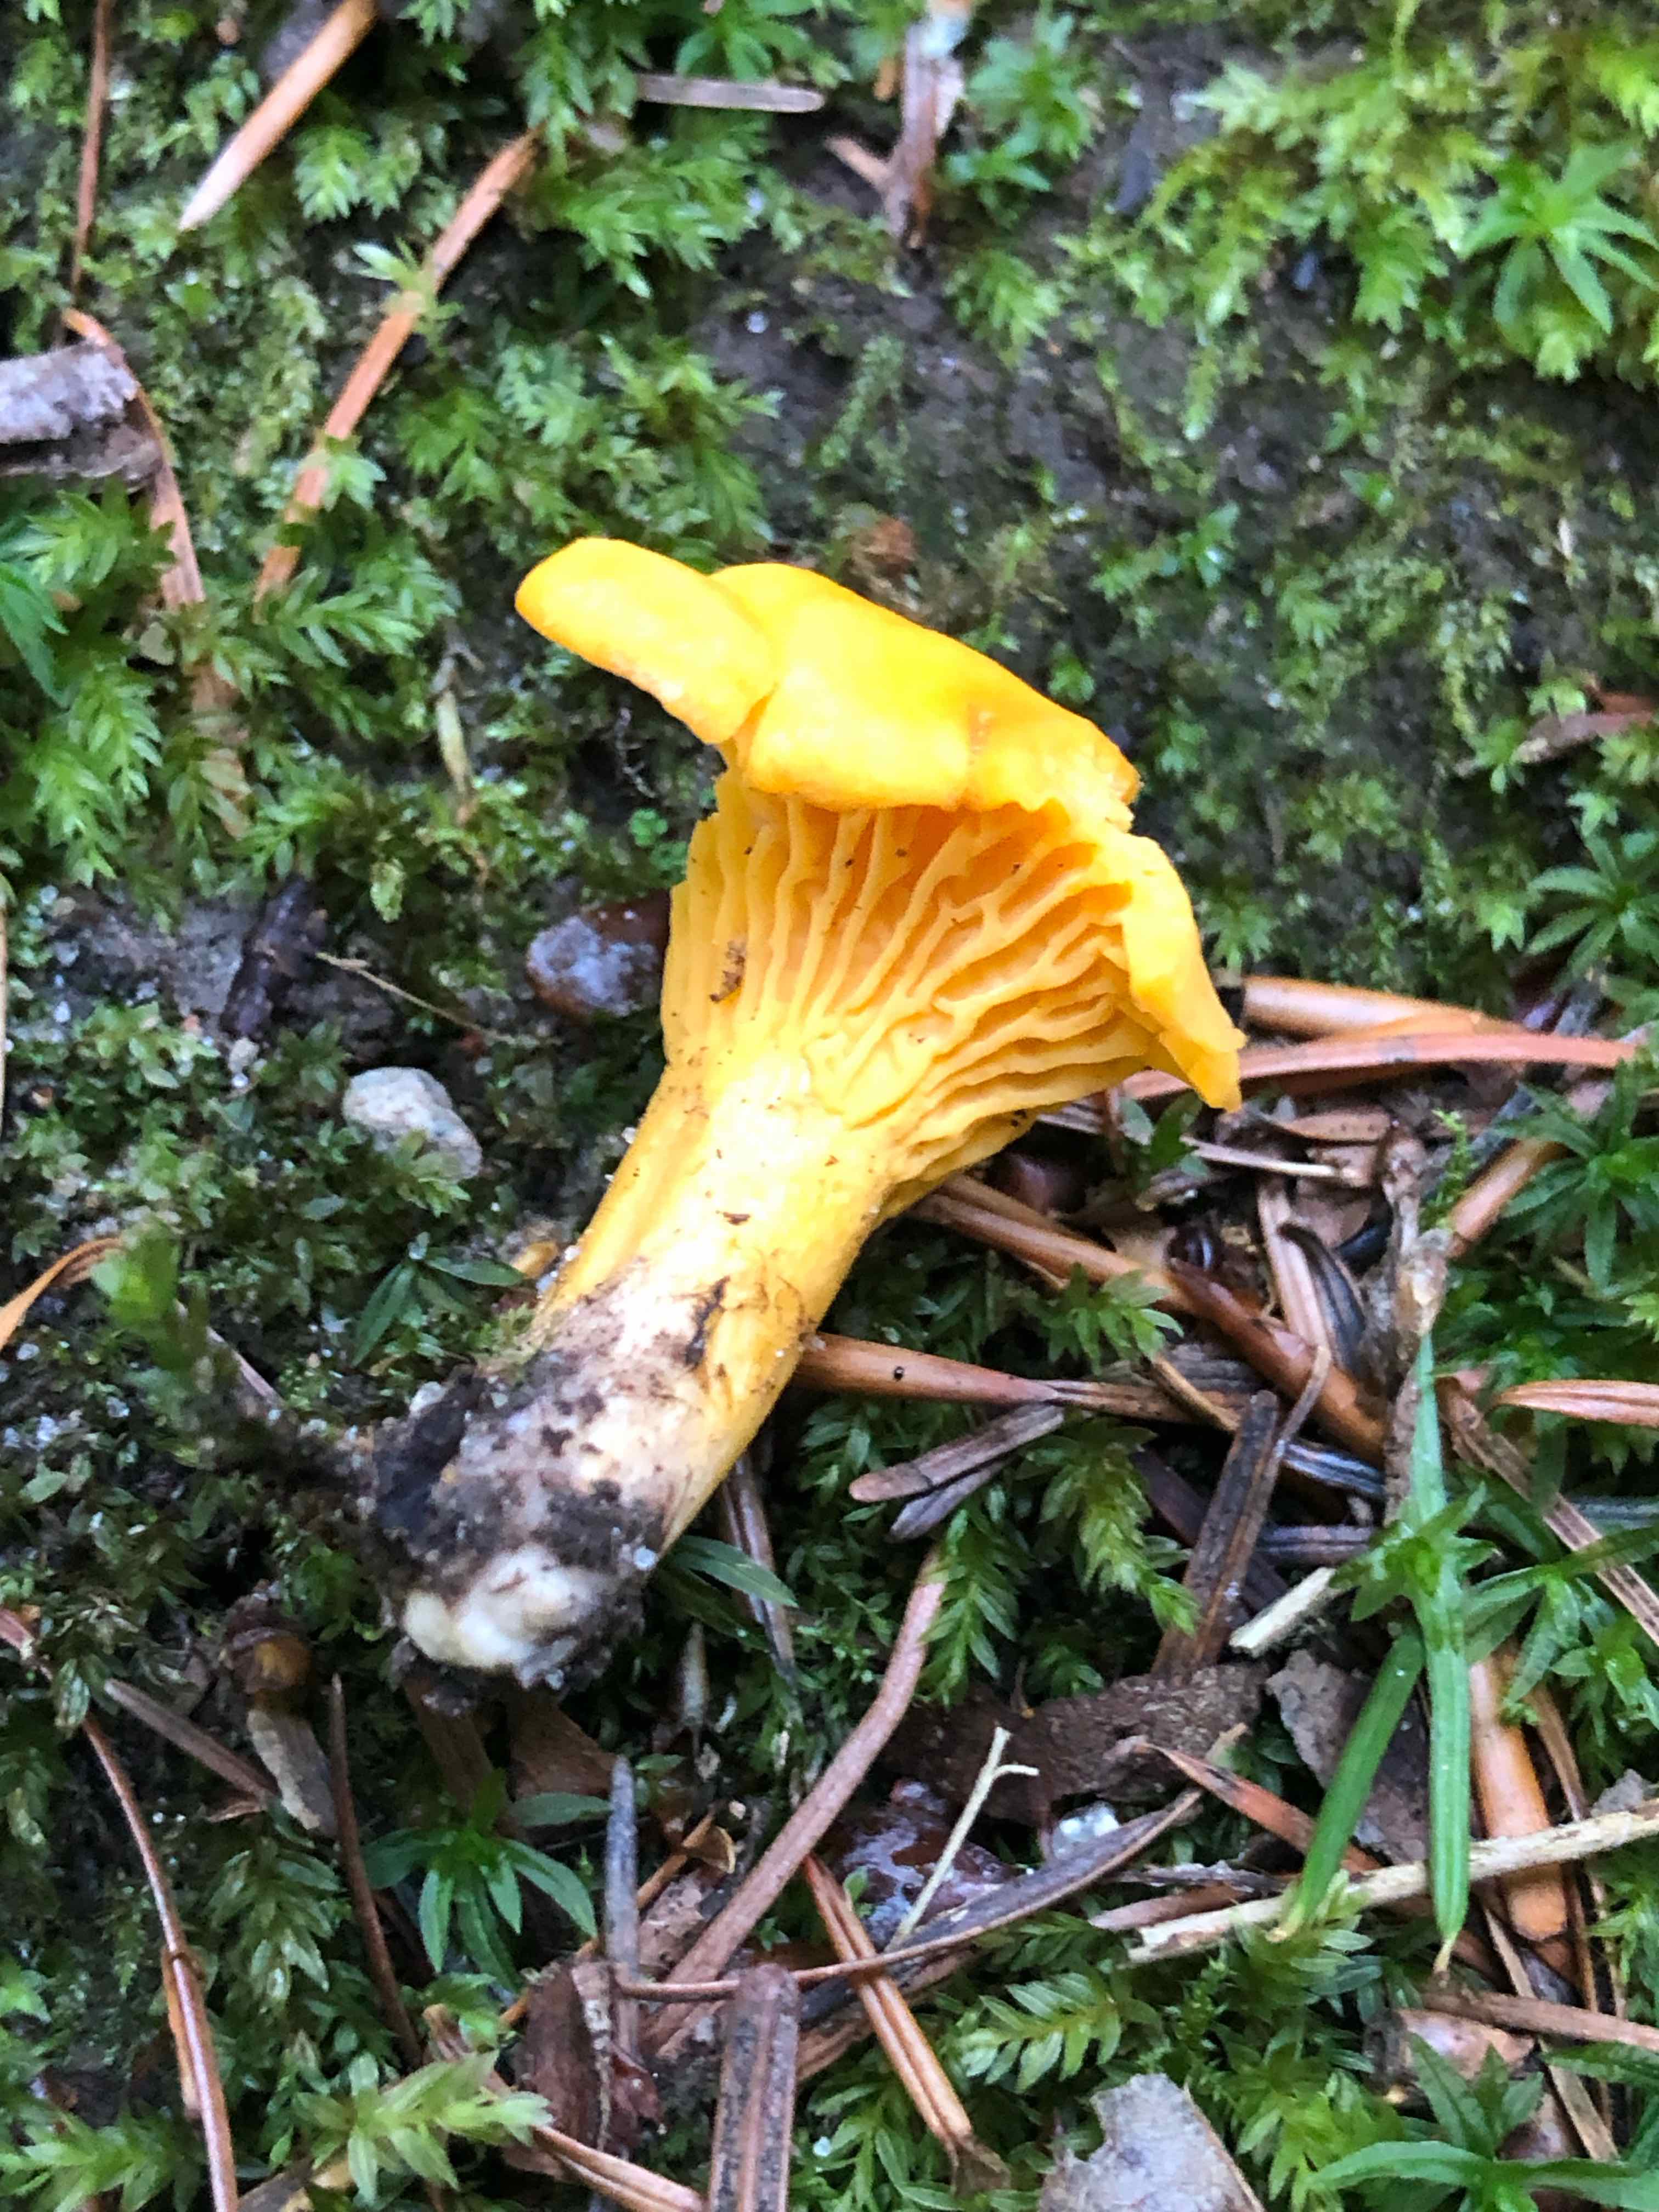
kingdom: Fungi
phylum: Basidiomycota
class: Agaricomycetes
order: Cantharellales
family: Hydnaceae
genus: Cantharellus
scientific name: Cantharellus cibarius
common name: almindelig kantarel
